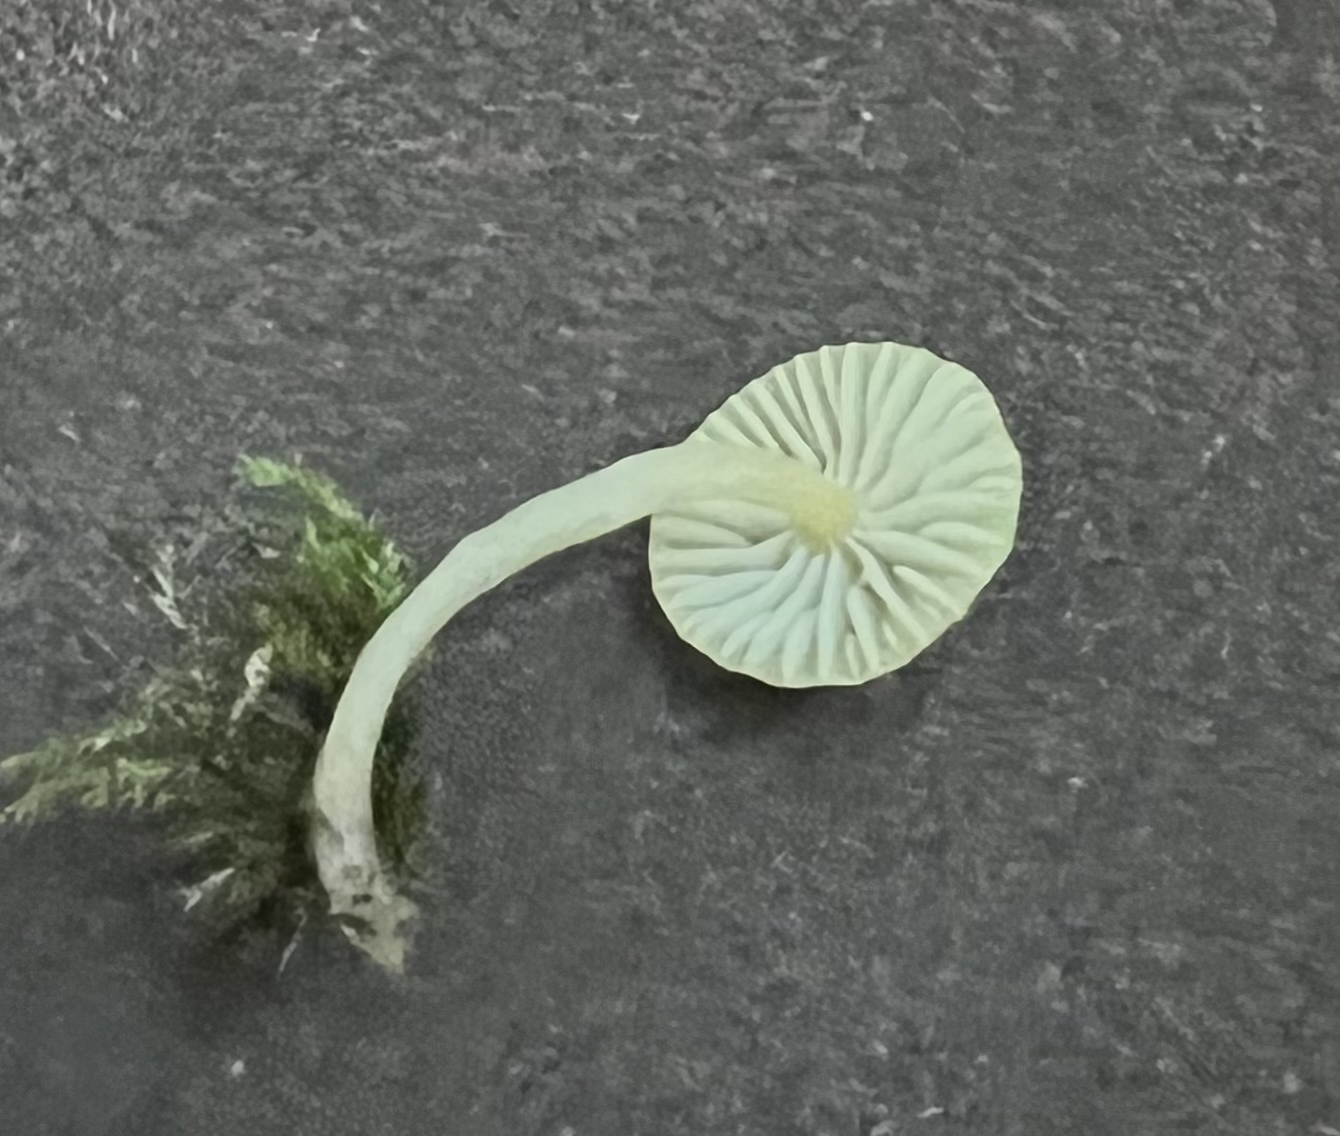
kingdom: Fungi
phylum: Basidiomycota
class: Agaricomycetes
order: Agaricales
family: Mycenaceae
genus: Mycena
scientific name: Mycena
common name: huesvamp
